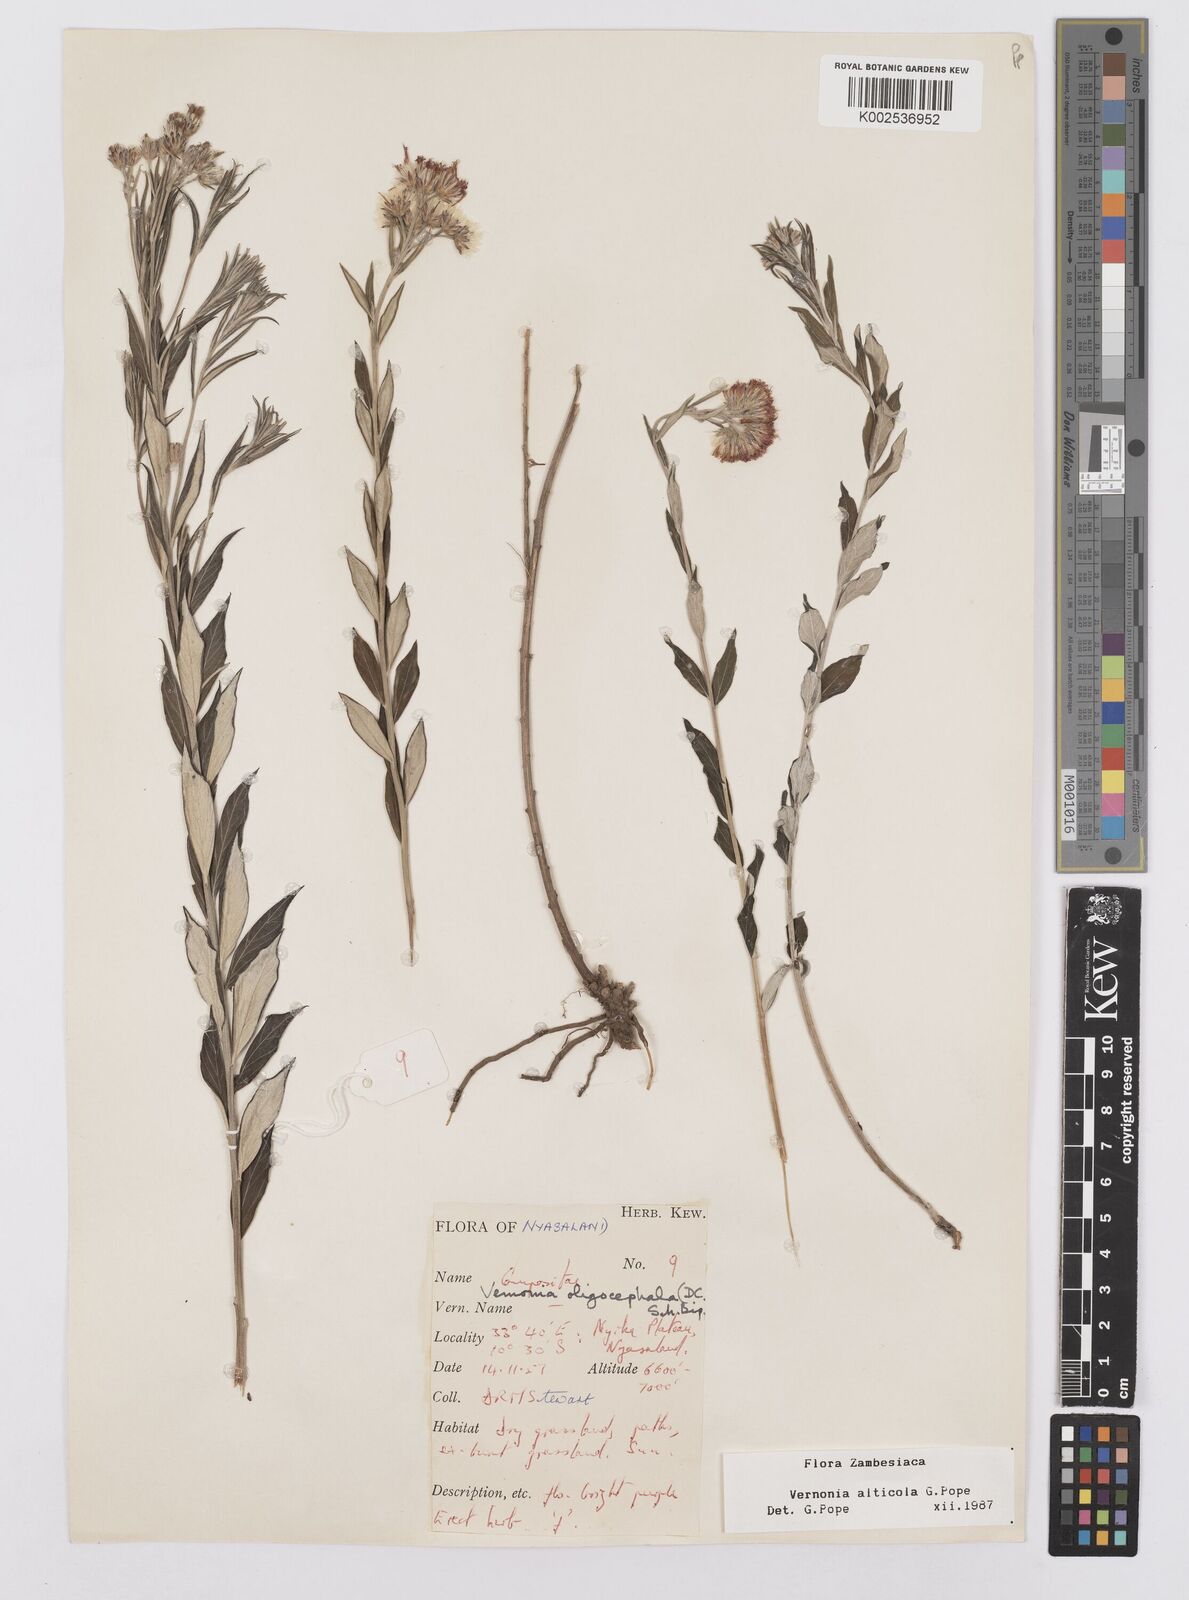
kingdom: Plantae
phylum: Tracheophyta
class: Magnoliopsida
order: Asterales
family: Asteraceae
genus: Vernonia
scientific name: Vernonia alticola
